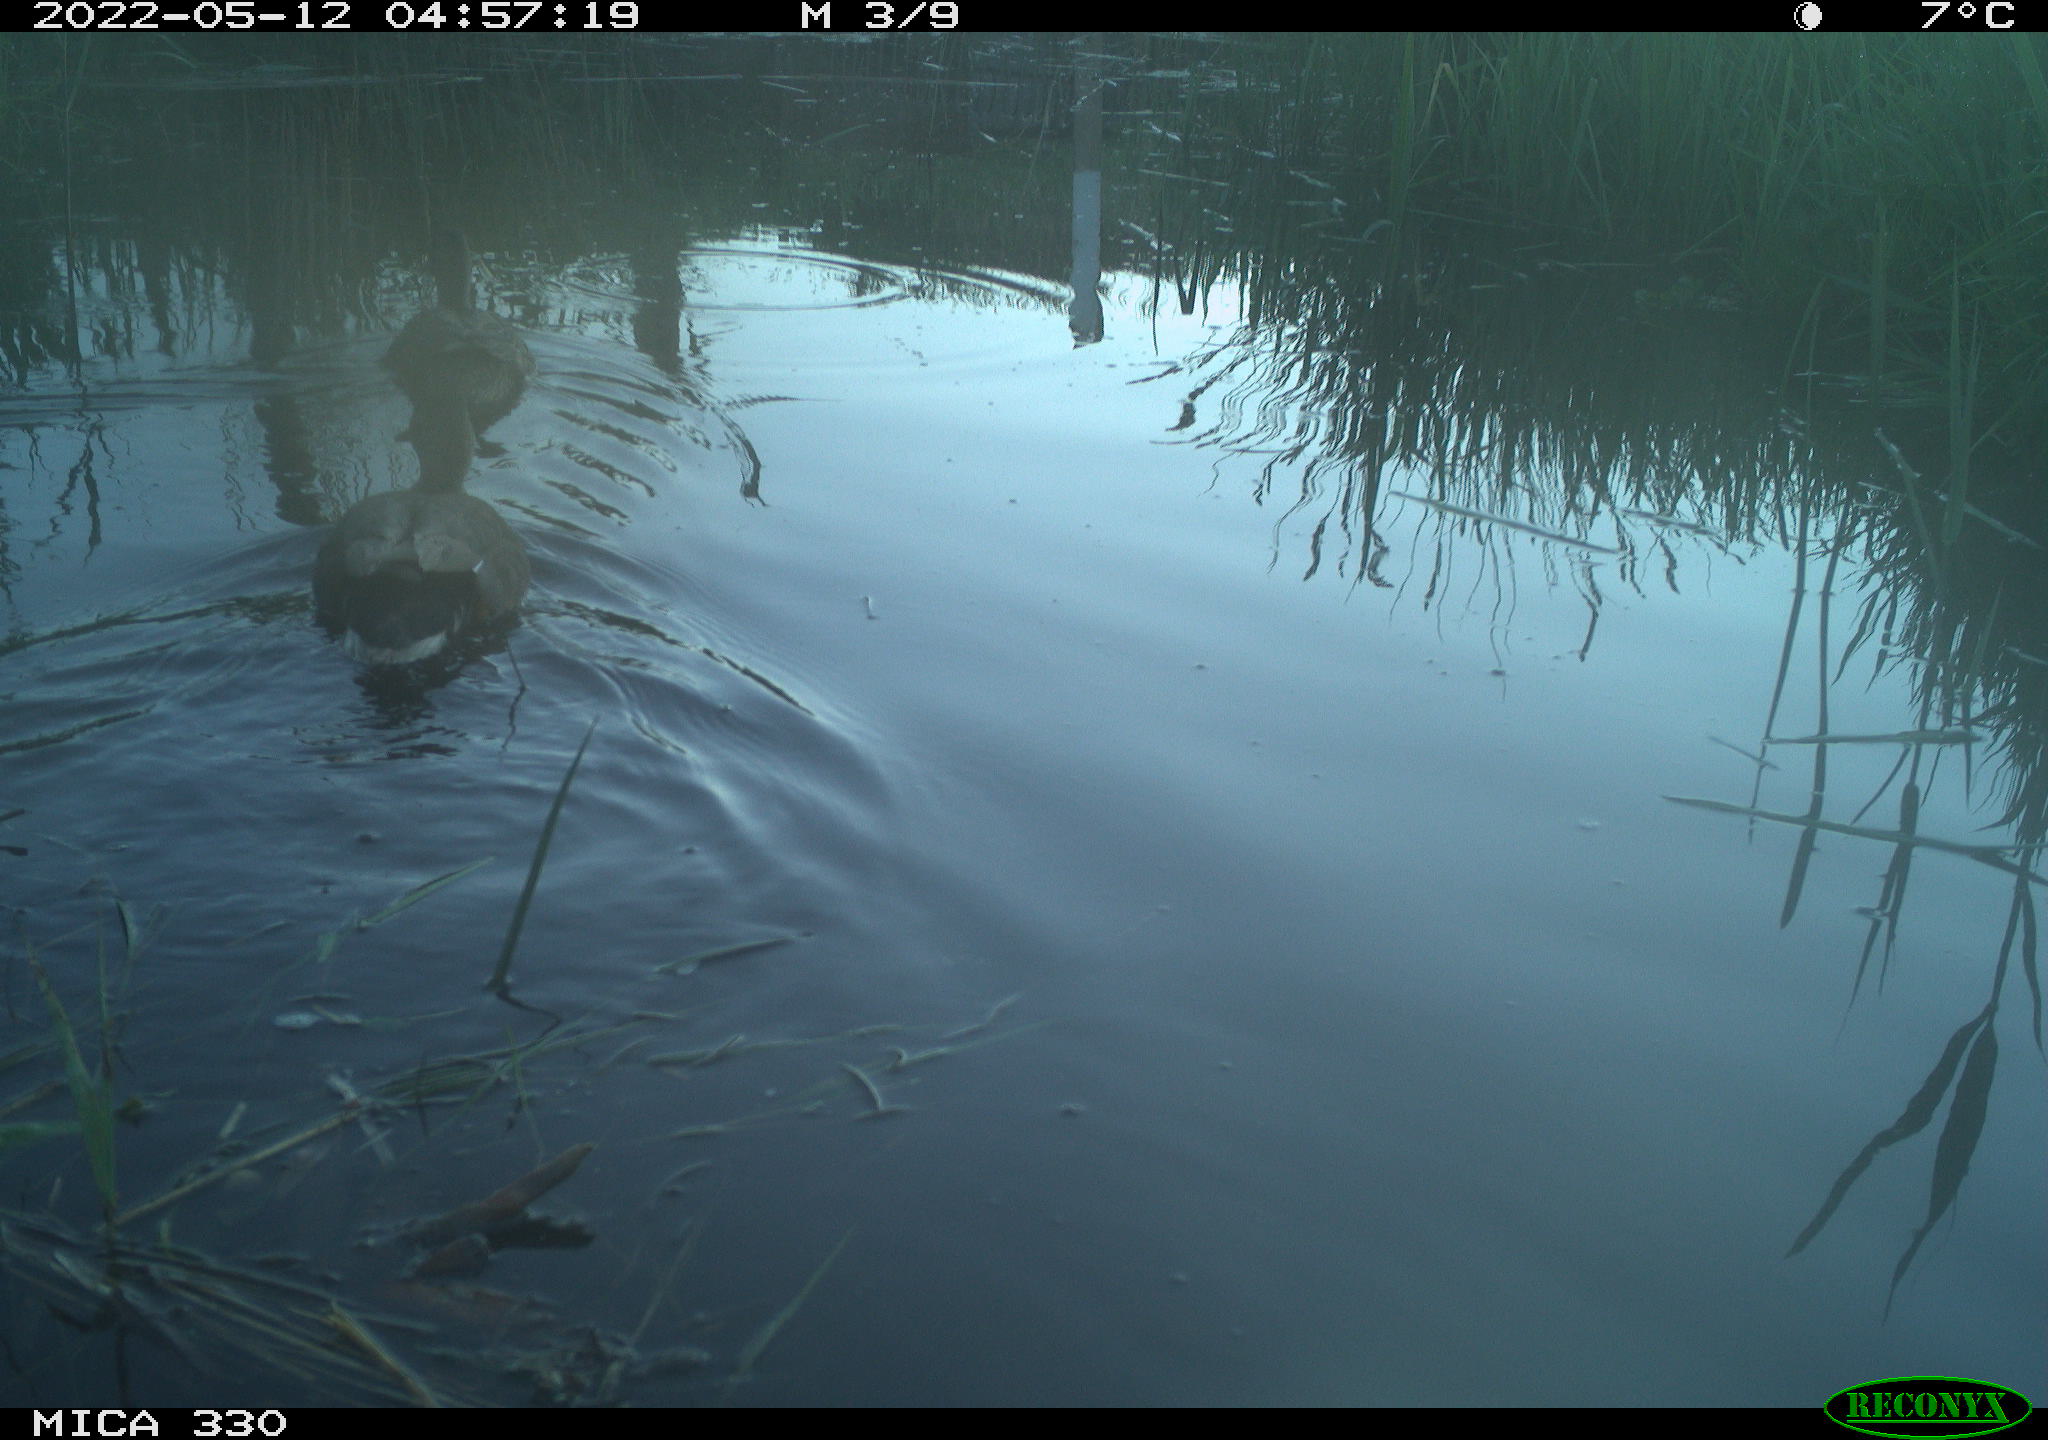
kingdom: Animalia
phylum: Chordata
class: Aves
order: Anseriformes
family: Anatidae
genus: Anas
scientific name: Anas platyrhynchos
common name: Mallard
